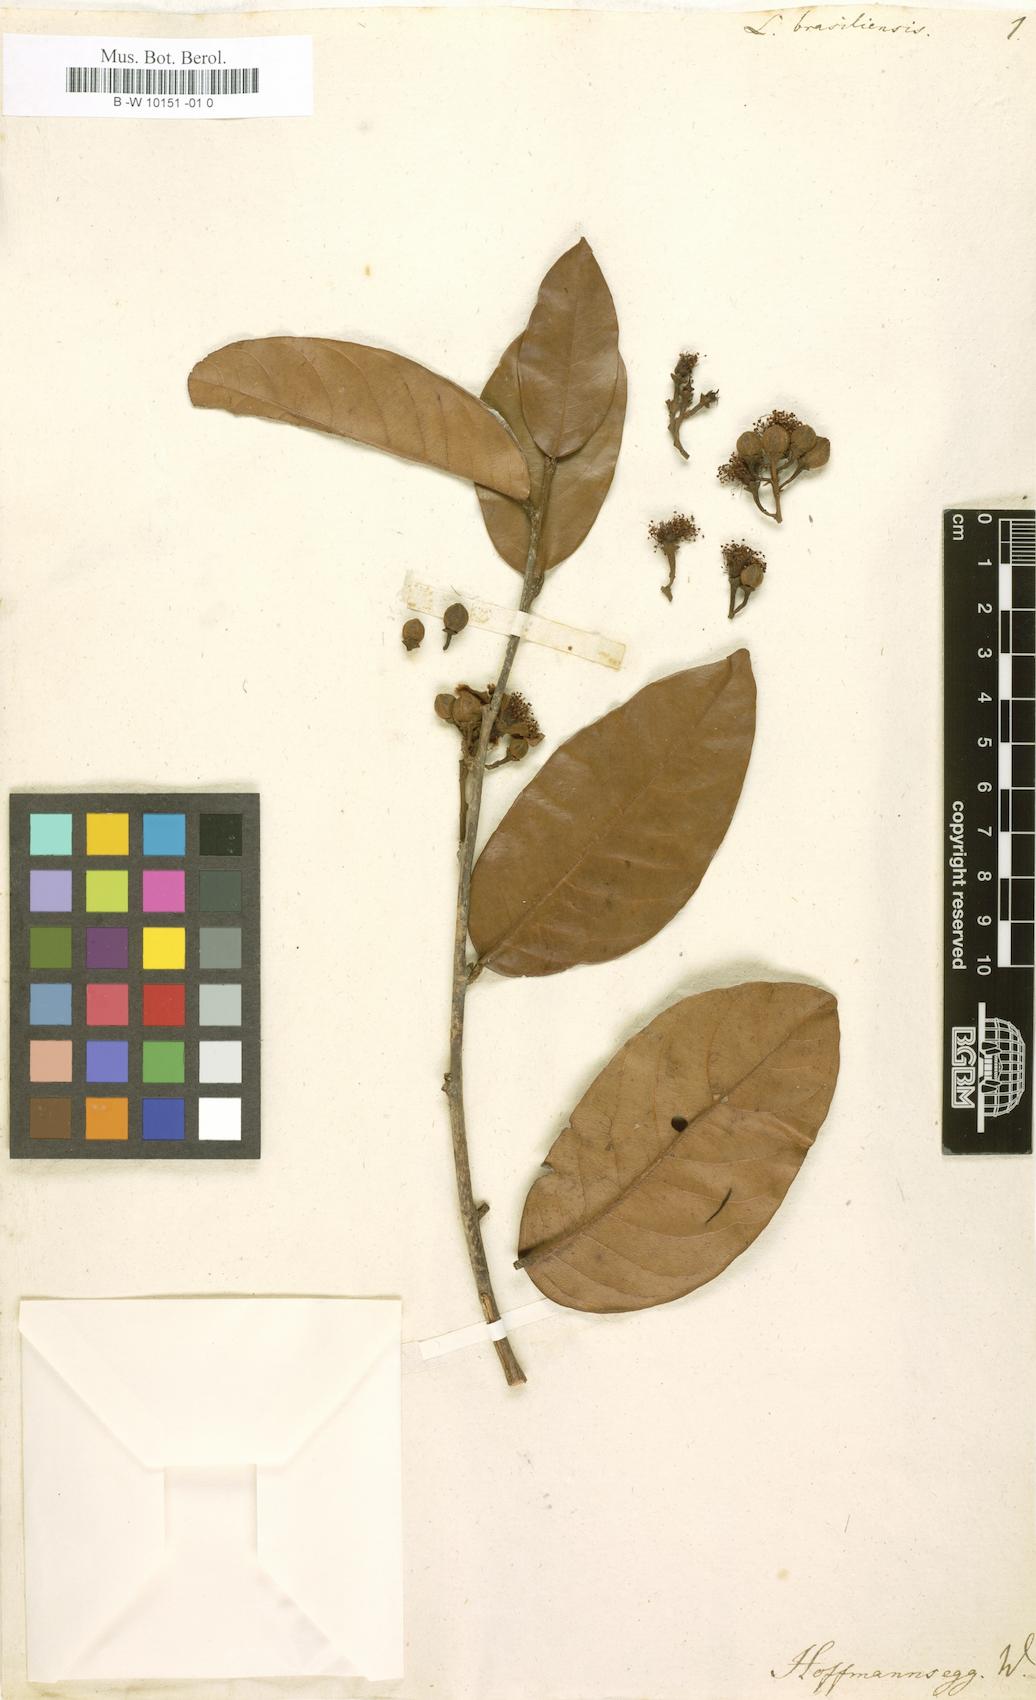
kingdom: Plantae
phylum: Tracheophyta
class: Magnoliopsida
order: Malpighiales
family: Humiriaceae
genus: Lemnescia
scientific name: Lemnescia
